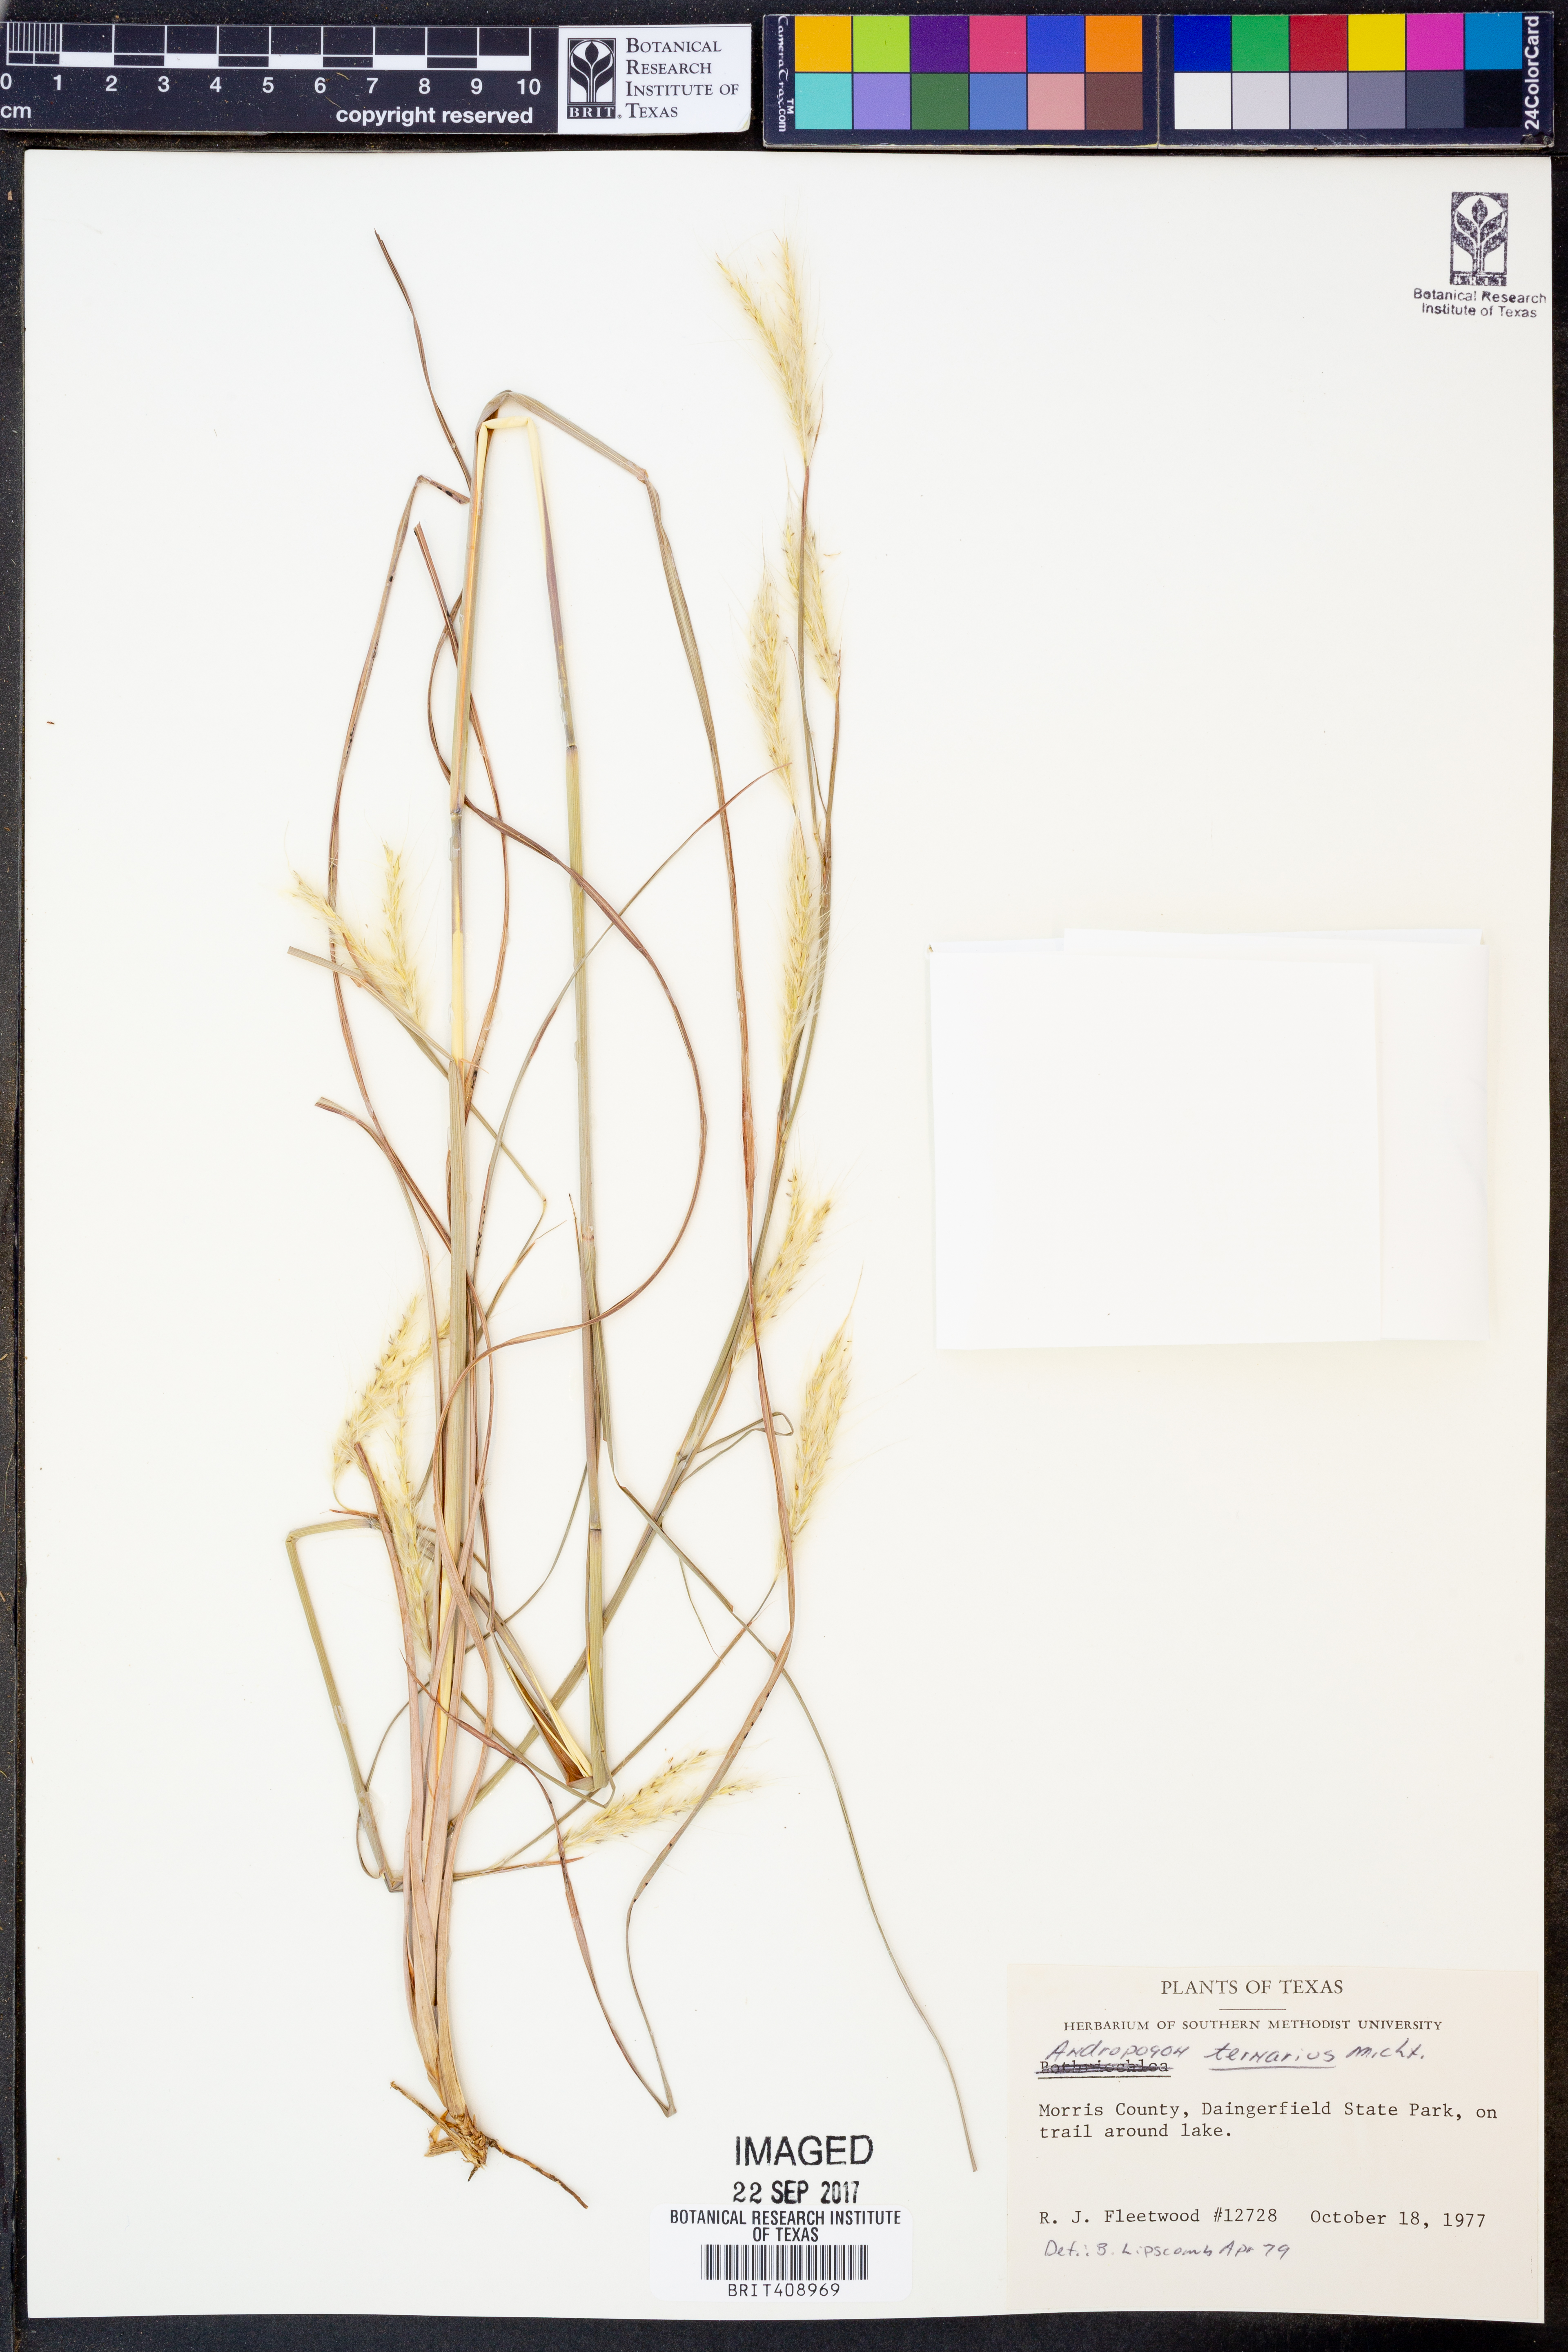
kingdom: Plantae
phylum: Tracheophyta
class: Liliopsida
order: Poales
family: Poaceae
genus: Andropogon
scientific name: Andropogon ternarius
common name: Split bluestem
